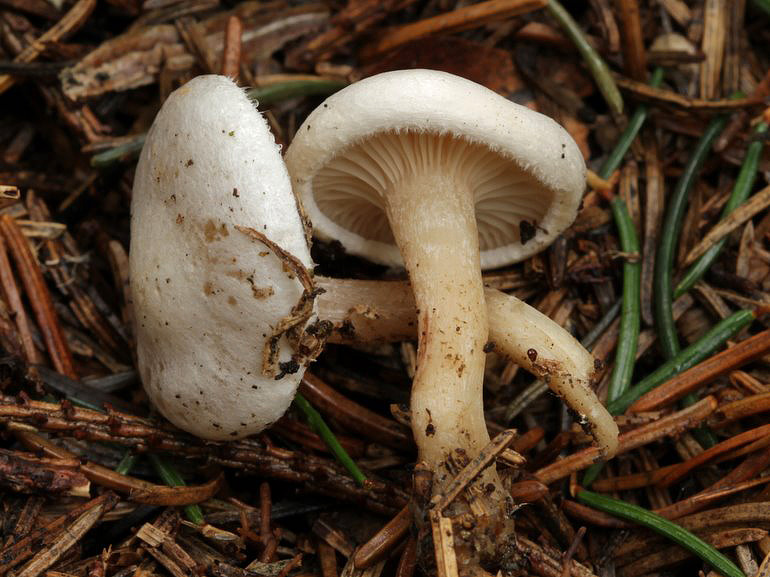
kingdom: Fungi
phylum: Basidiomycota
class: Agaricomycetes
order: Agaricales
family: Tricholomataceae
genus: Ripartites
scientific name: Ripartites tricholoma
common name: almindelig skæghat
